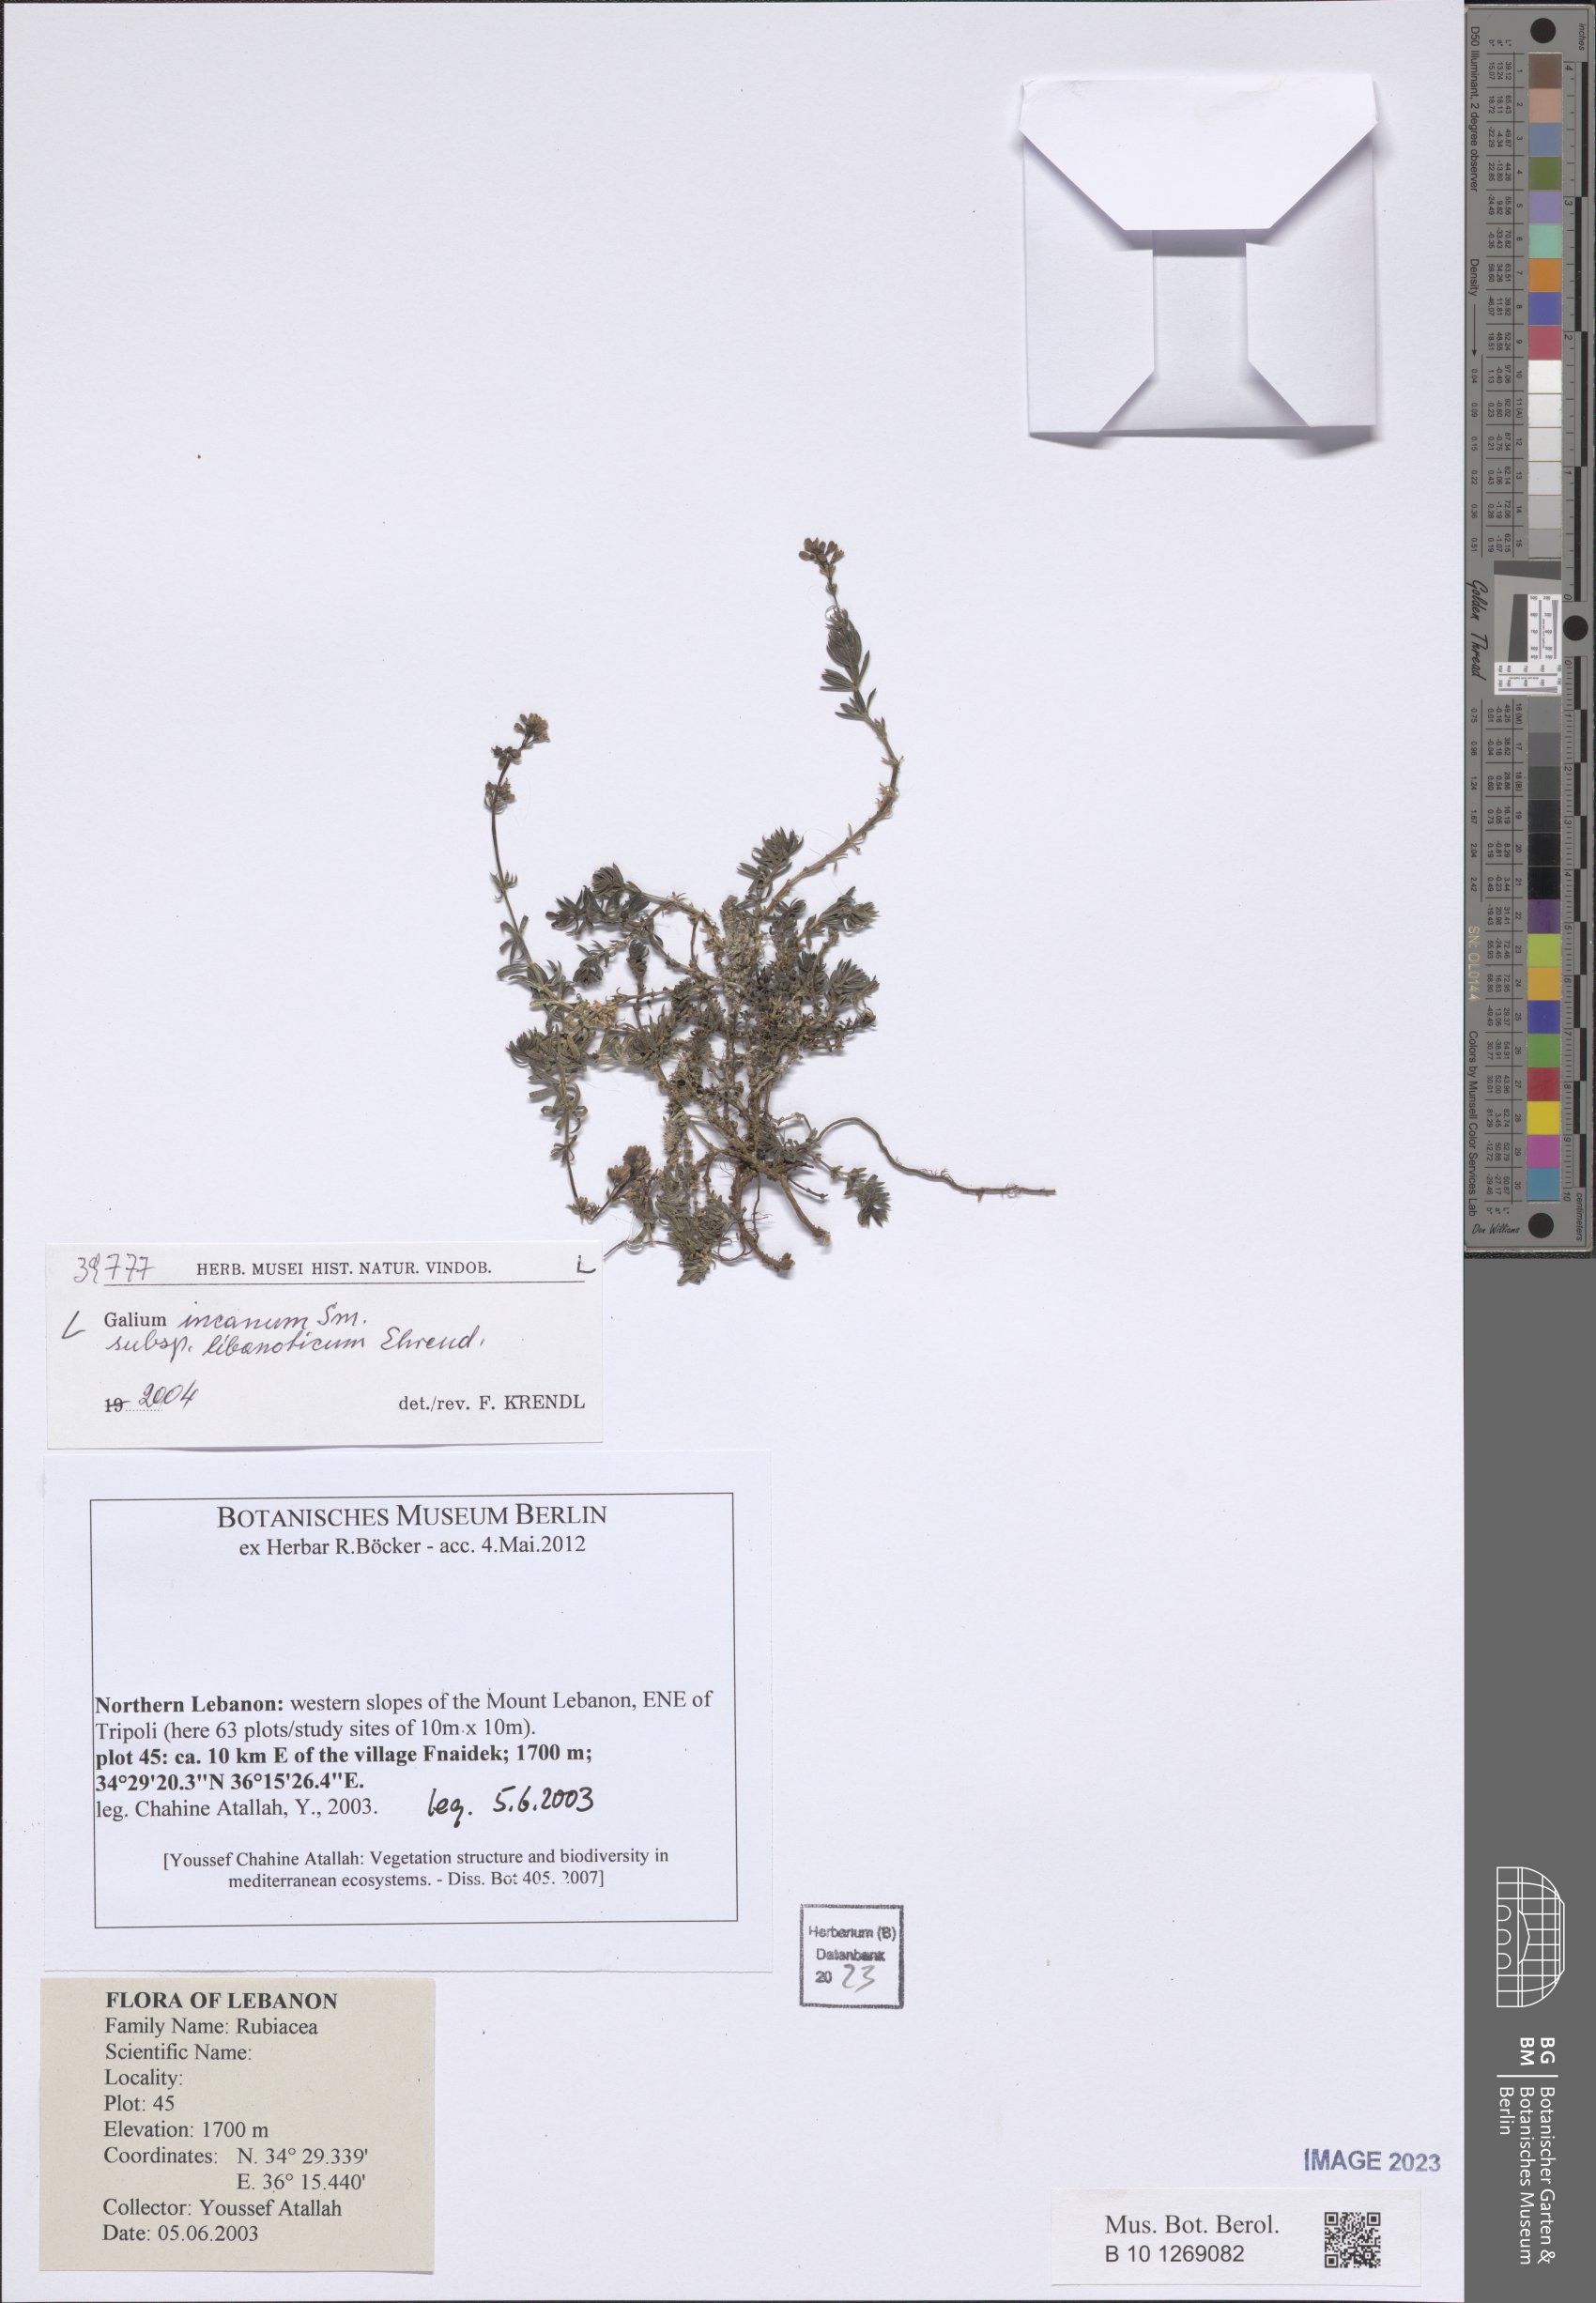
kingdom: Plantae
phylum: Tracheophyta
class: Magnoliopsida
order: Gentianales
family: Rubiaceae
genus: Galium
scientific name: Galium incanum
